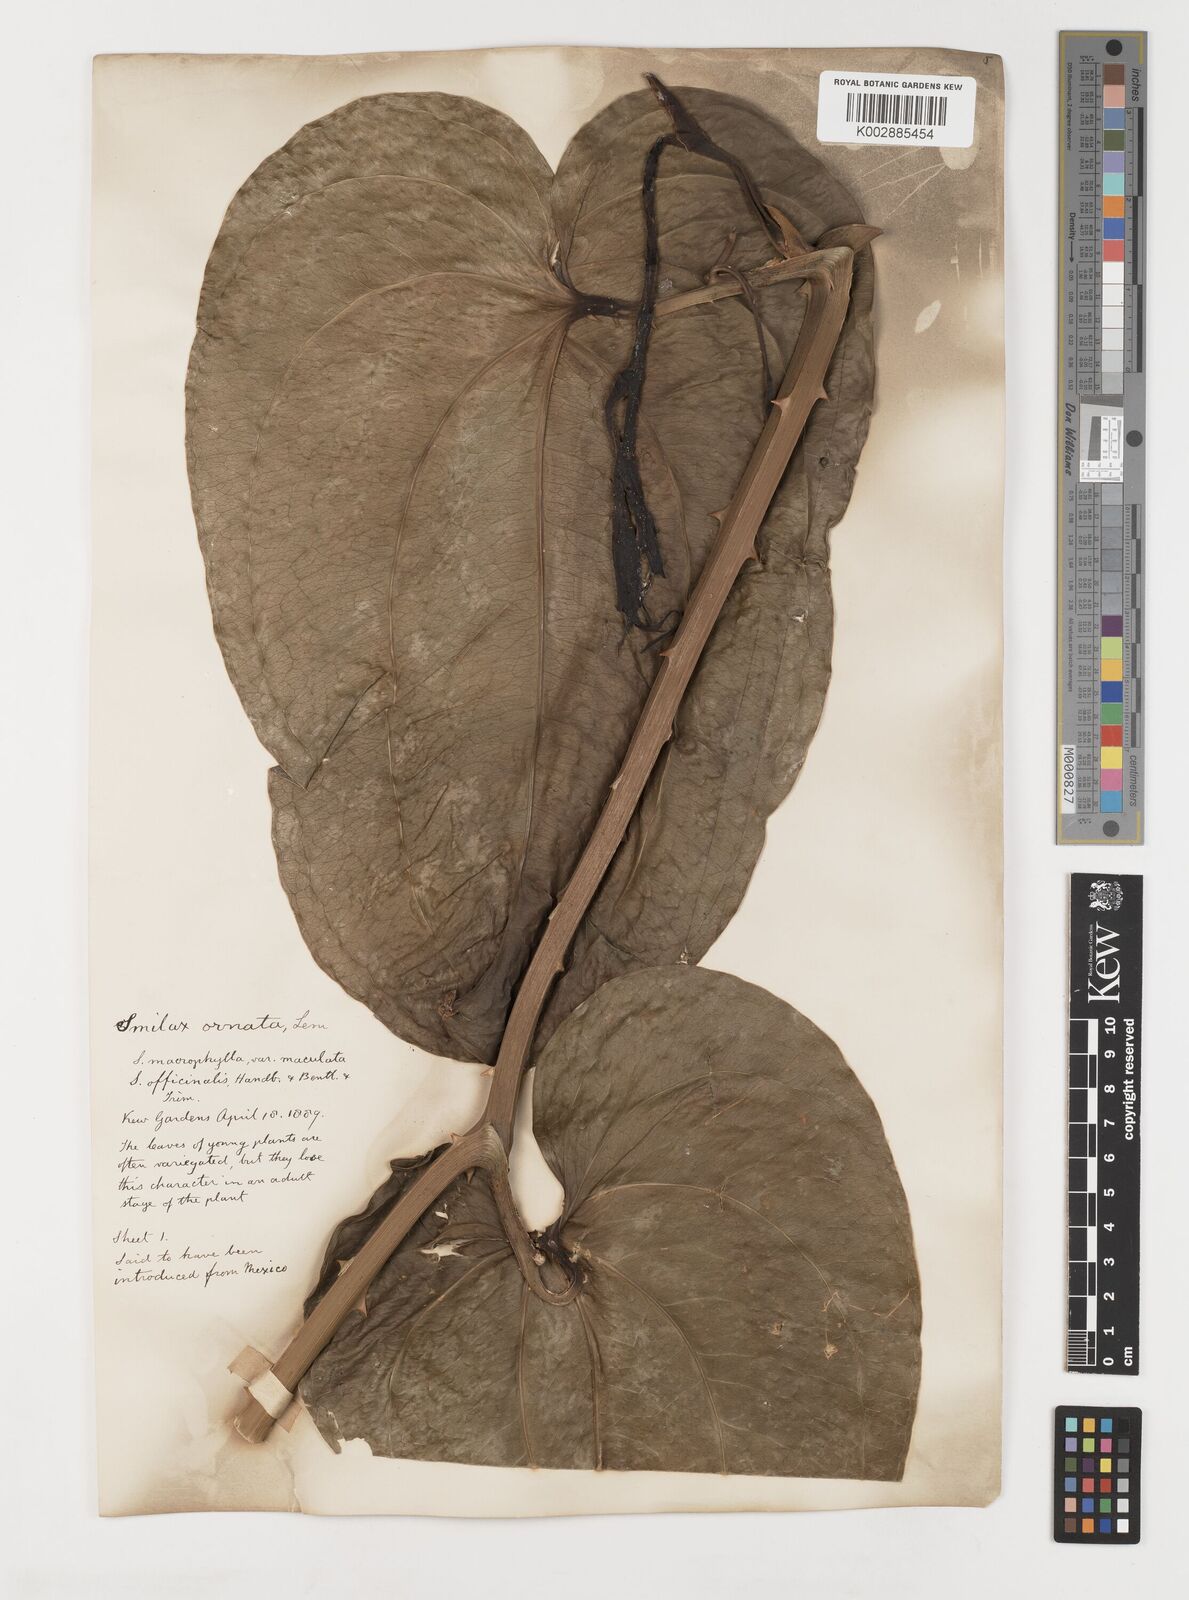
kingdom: Plantae
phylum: Tracheophyta
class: Liliopsida
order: Liliales
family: Smilacaceae
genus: Smilax
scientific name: Smilax ornata
